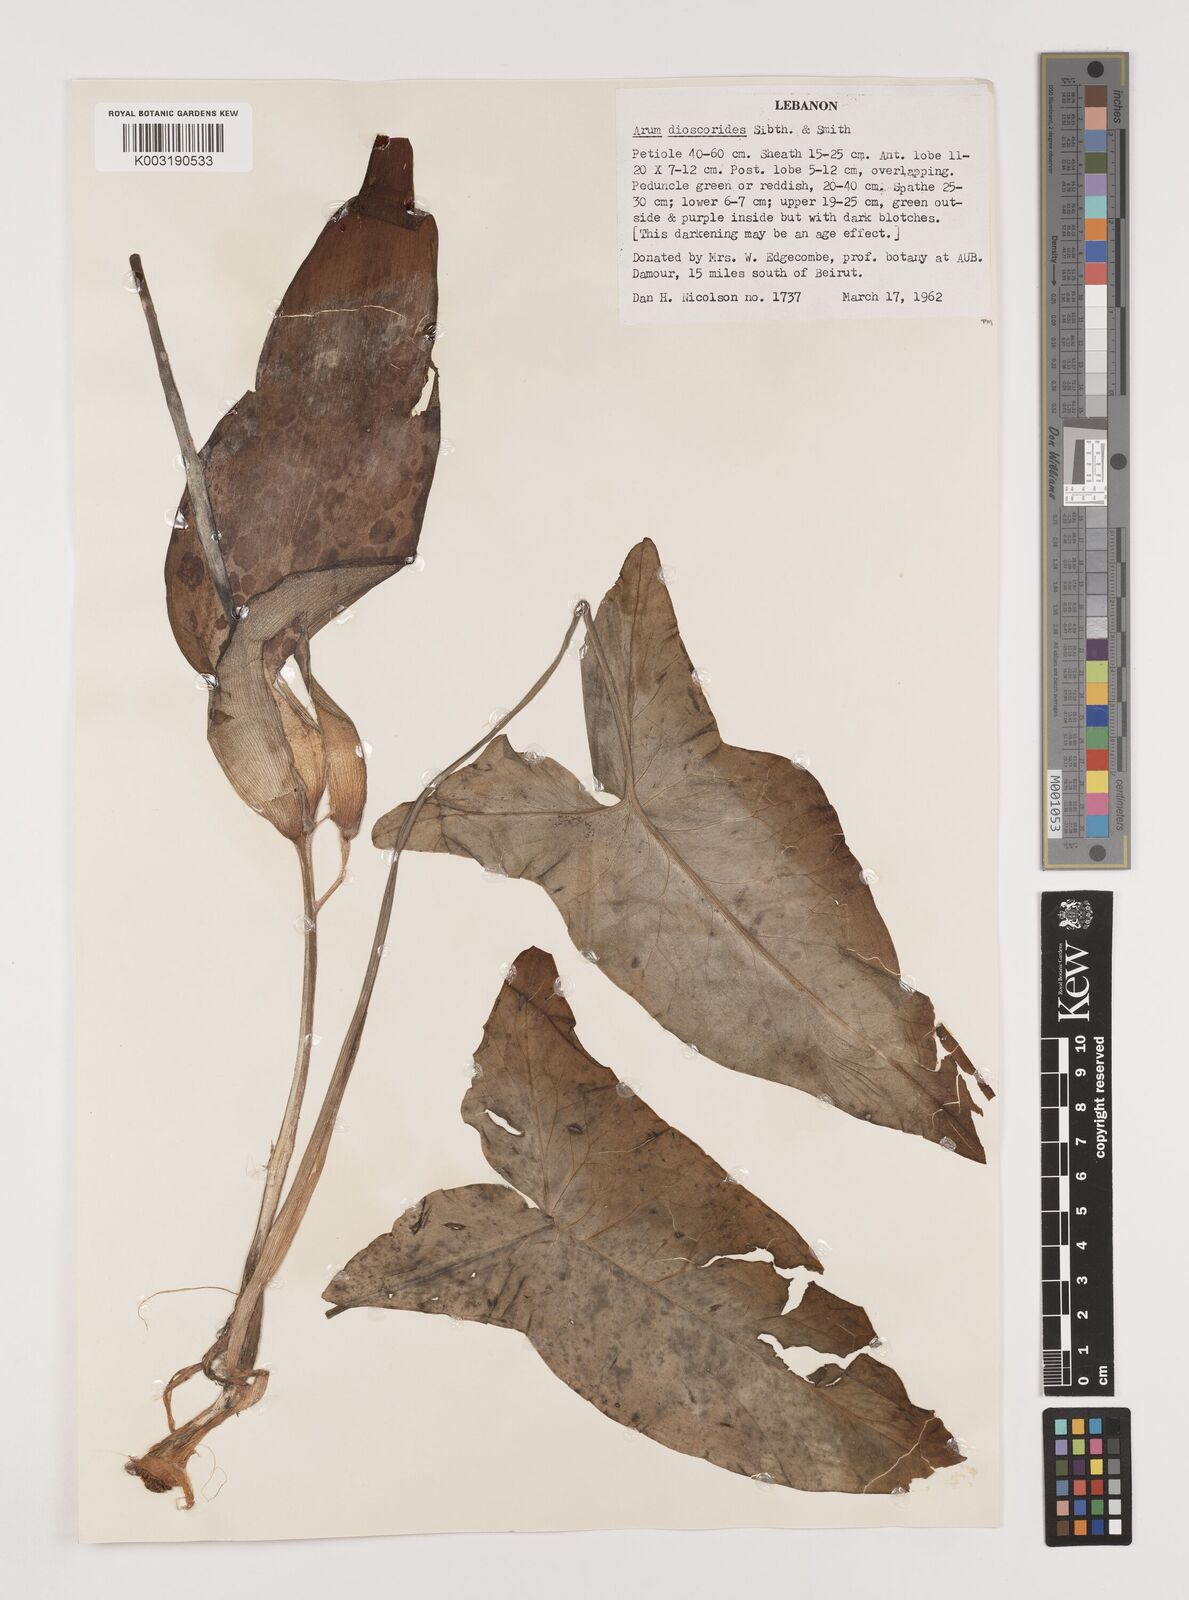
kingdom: Plantae
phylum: Tracheophyta
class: Liliopsida
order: Alismatales
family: Araceae
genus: Arum
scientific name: Arum dioscoridis
